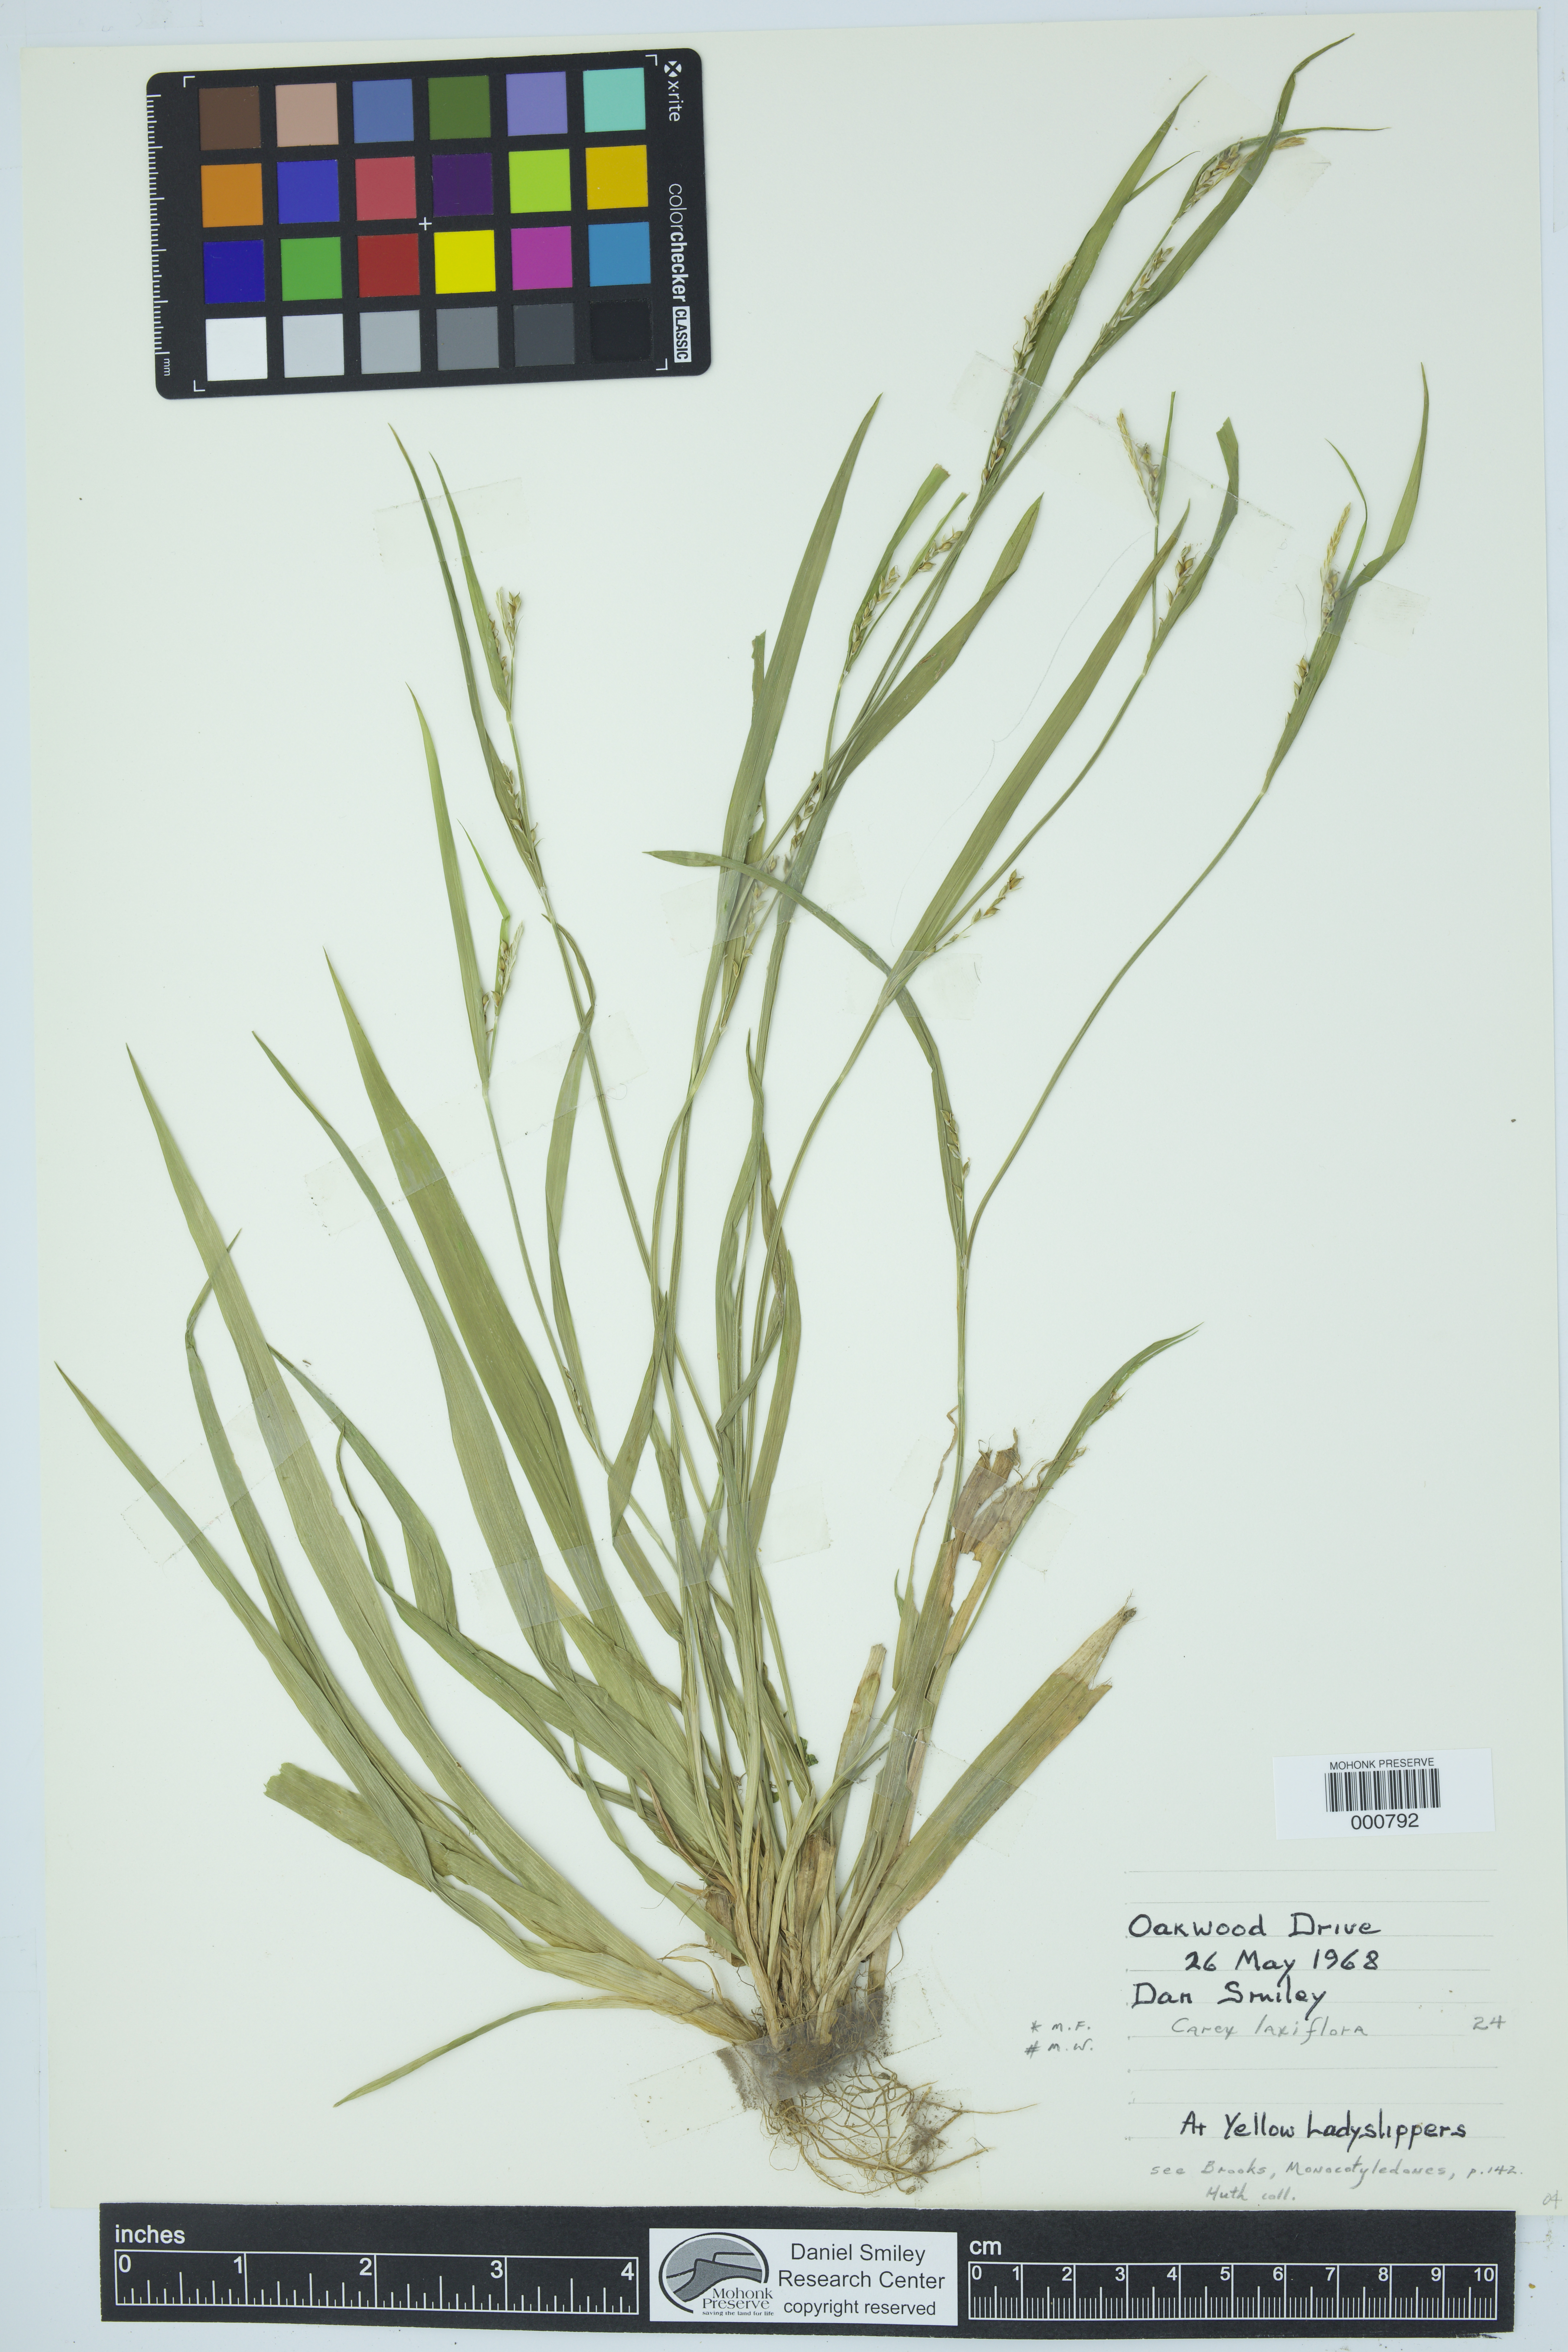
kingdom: Plantae
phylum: Tracheophyta
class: Liliopsida
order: Poales
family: Cyperaceae
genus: Carex
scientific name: Carex laxiflora
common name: Beech wood sedge
